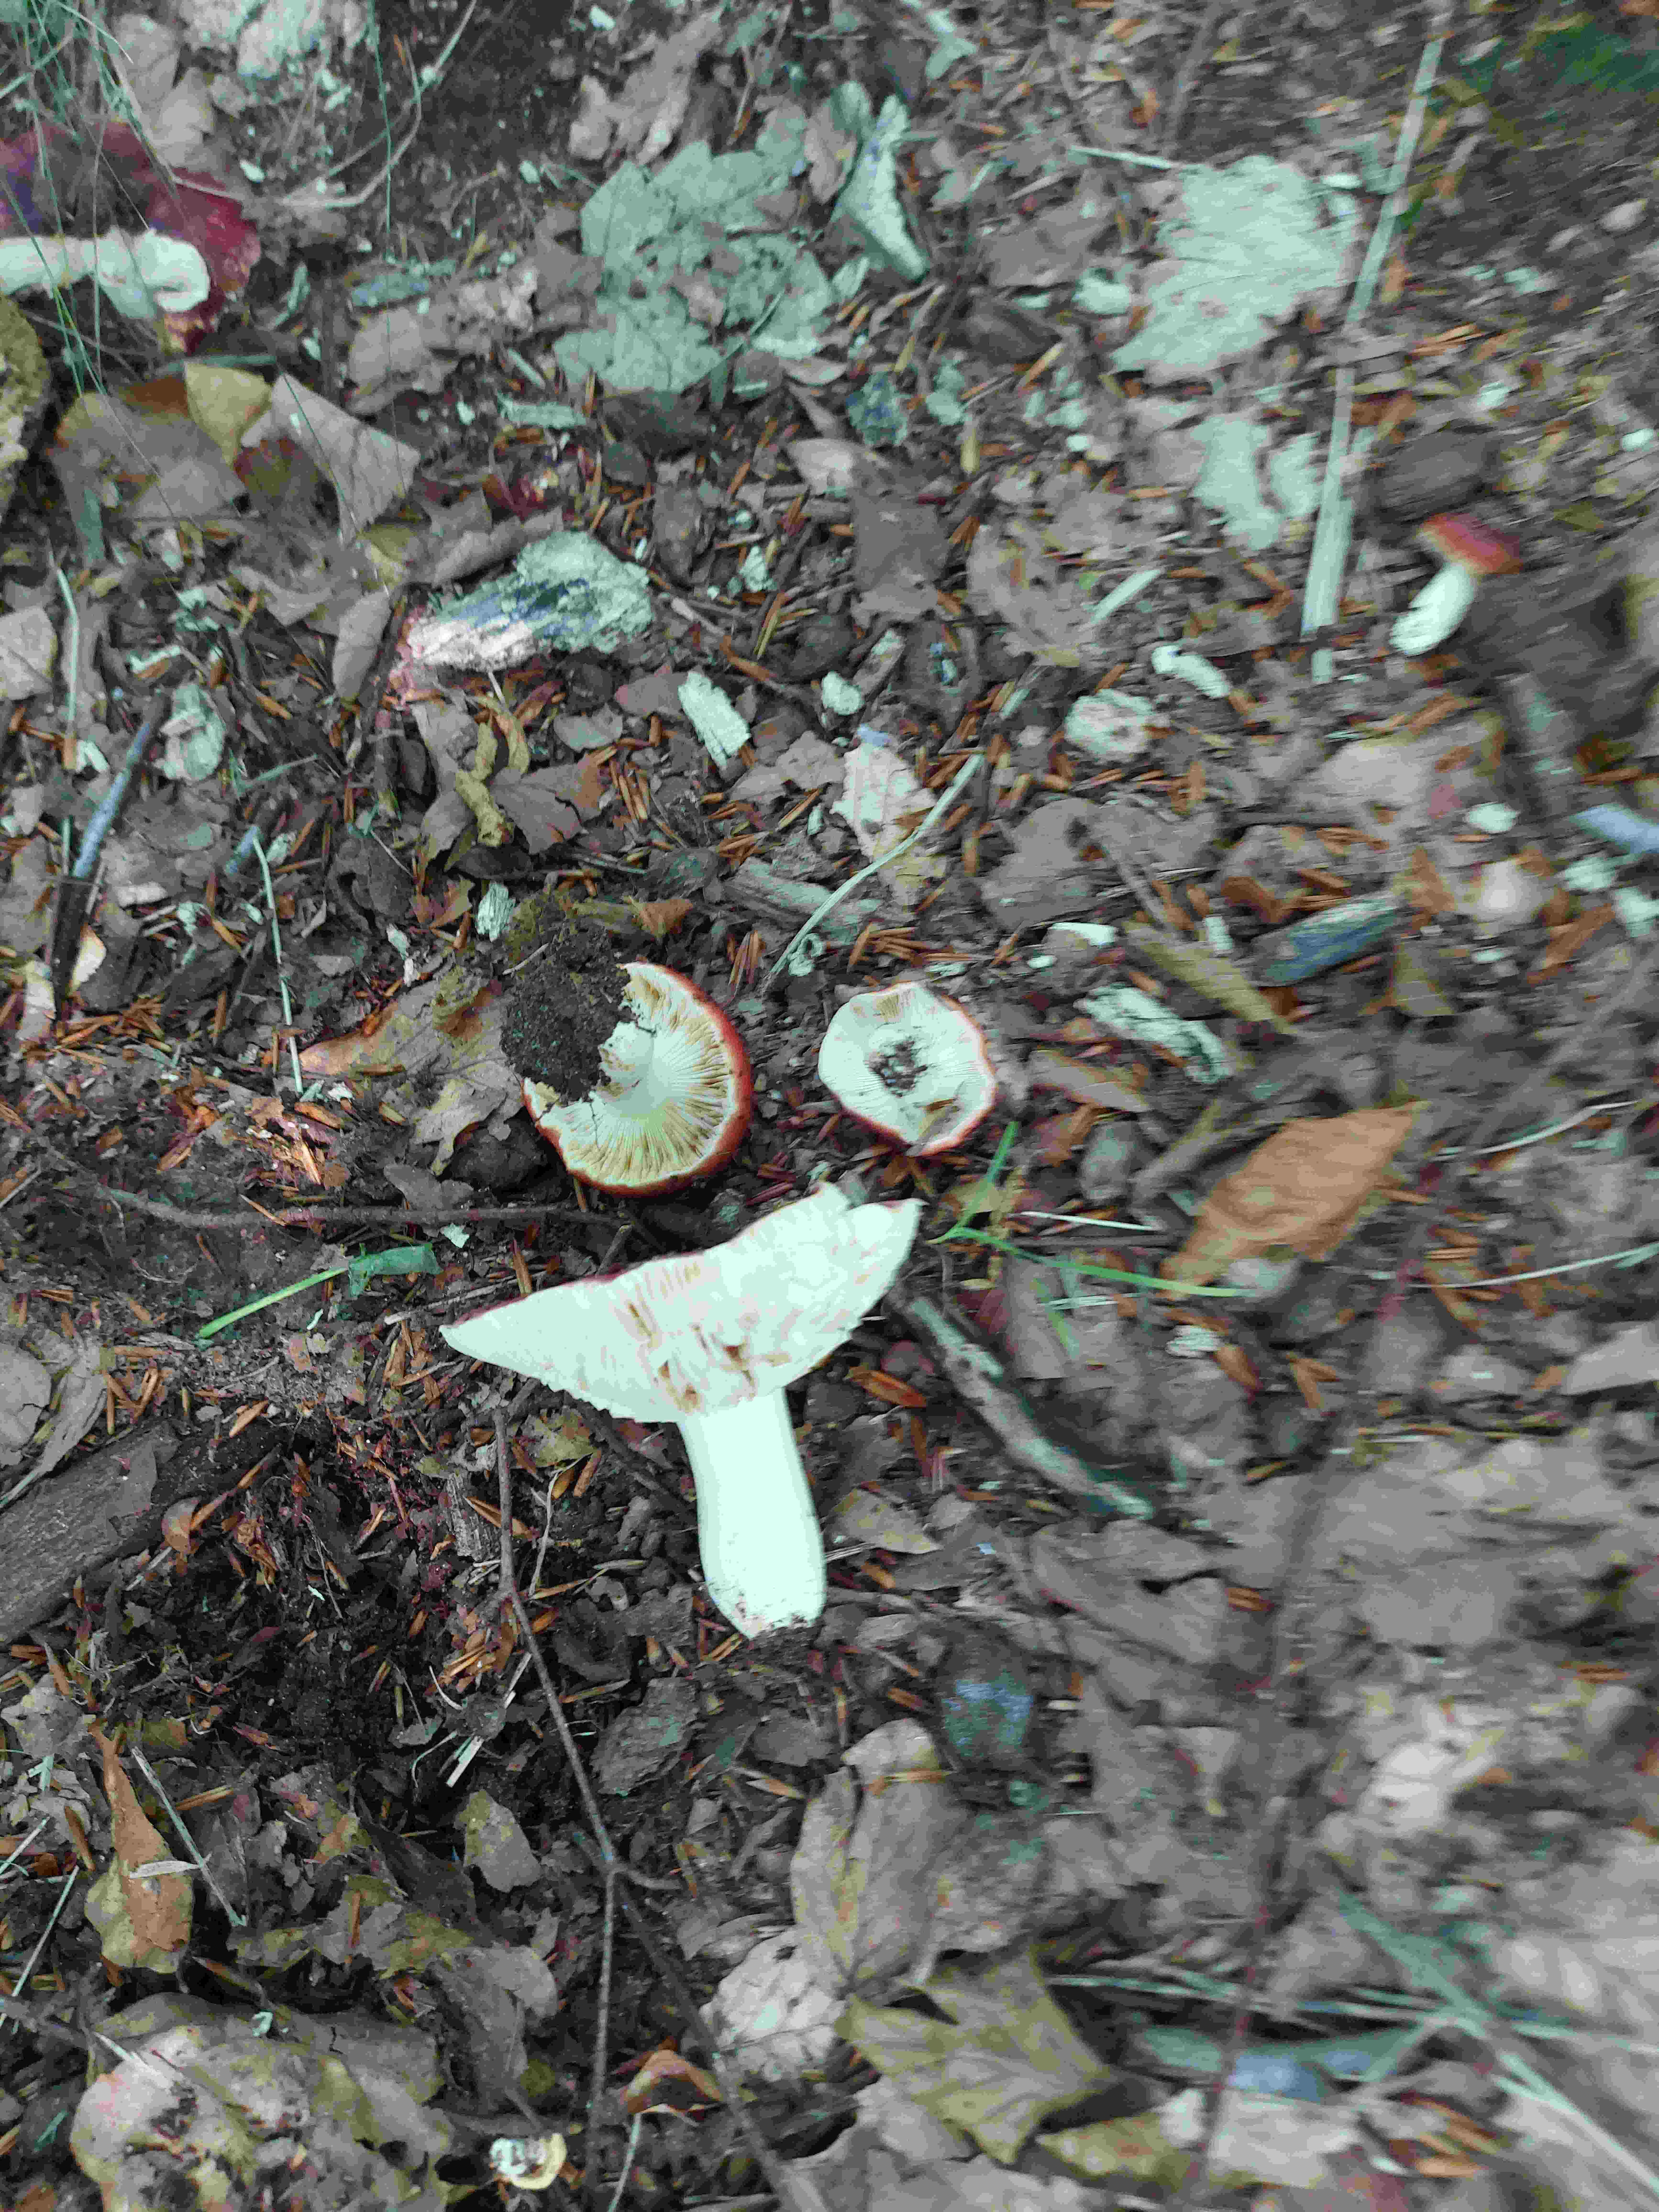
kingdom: Fungi
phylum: Basidiomycota
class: Agaricomycetes
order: Russulales
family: Russulaceae
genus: Russula
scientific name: Russula atropurpurea
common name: purpurbroget skørhat
